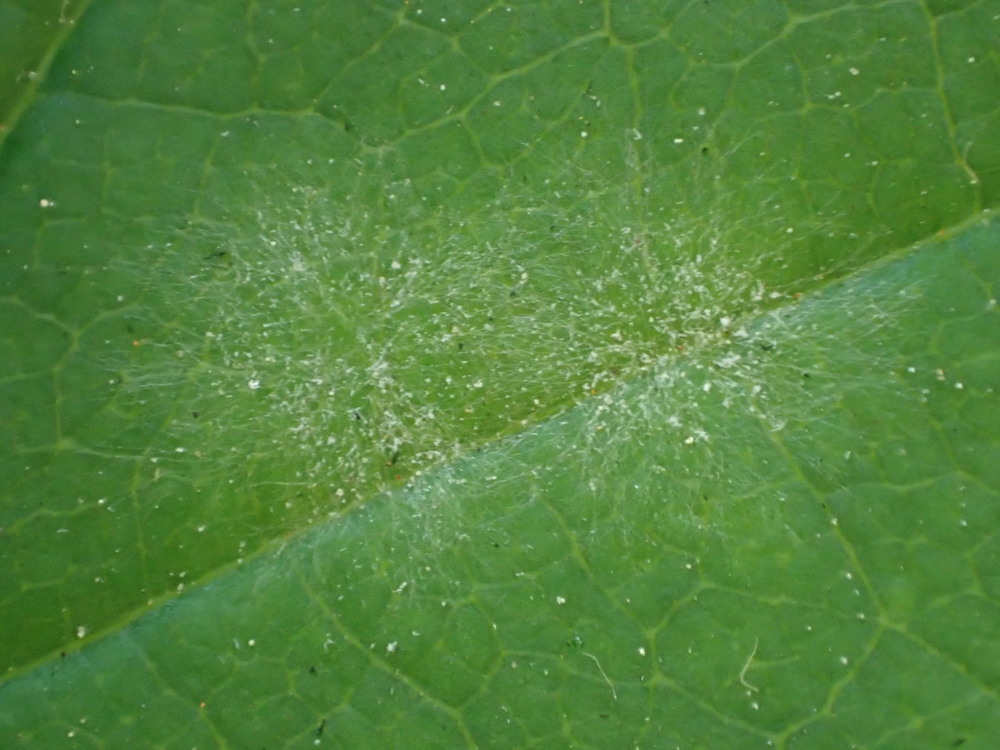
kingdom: Fungi
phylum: Ascomycota
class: Leotiomycetes
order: Helotiales
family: Erysiphaceae
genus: Sawadaea
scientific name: Sawadaea bicornis
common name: Maple mildew
